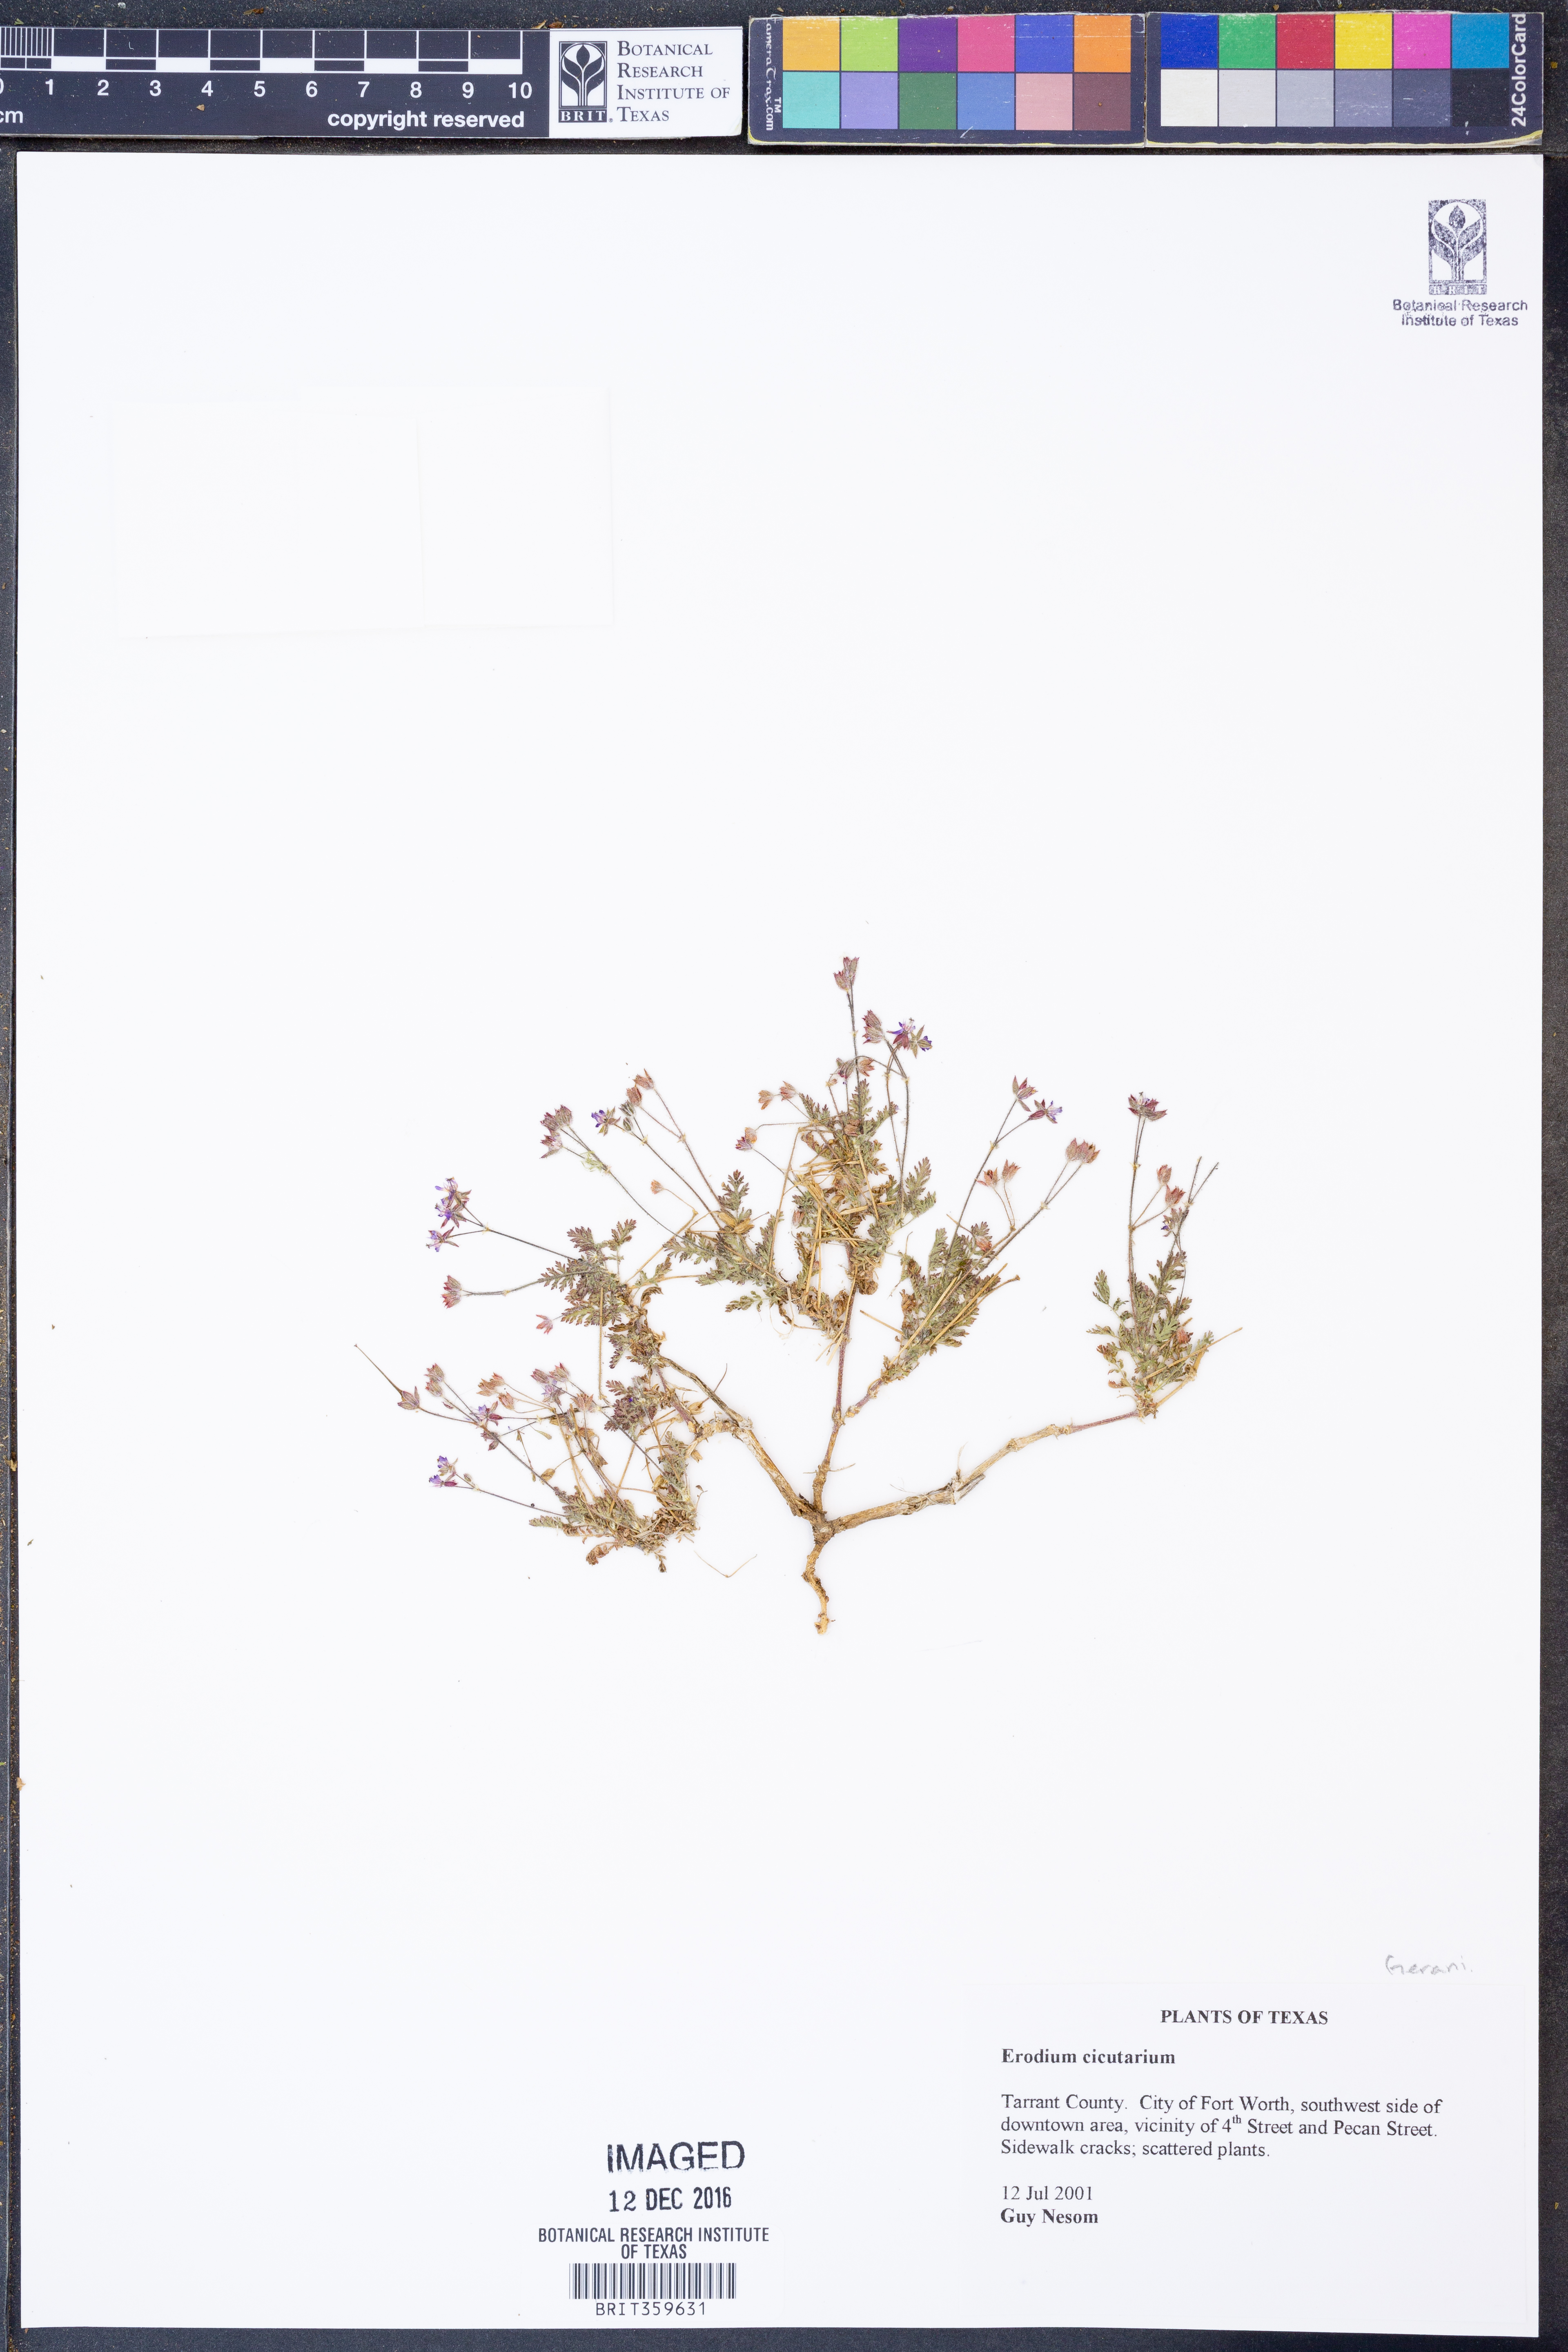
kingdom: Plantae
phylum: Tracheophyta
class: Magnoliopsida
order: Geraniales
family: Geraniaceae
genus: Erodium
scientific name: Erodium cicutarium
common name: Common stork's-bill
